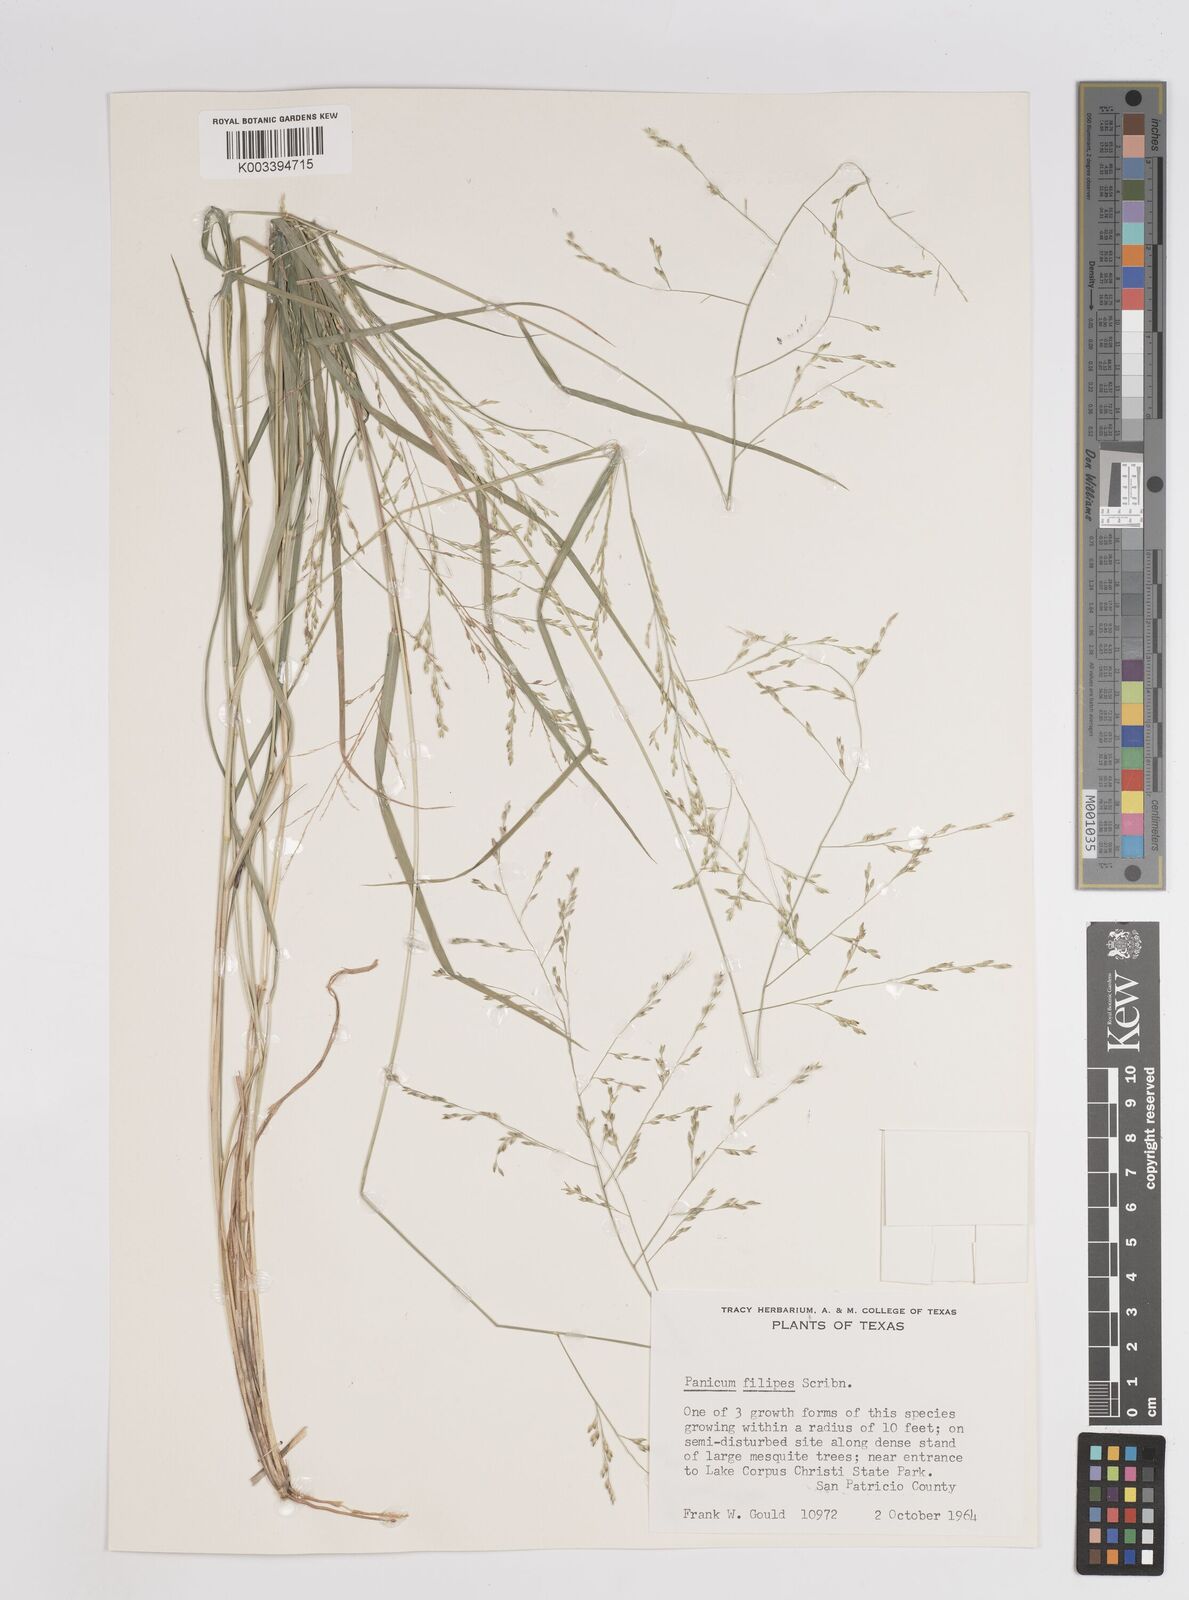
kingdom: Plantae
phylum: Tracheophyta
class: Liliopsida
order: Poales
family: Poaceae
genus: Panicum
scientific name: Panicum hallii
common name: Hall's witchgrass
